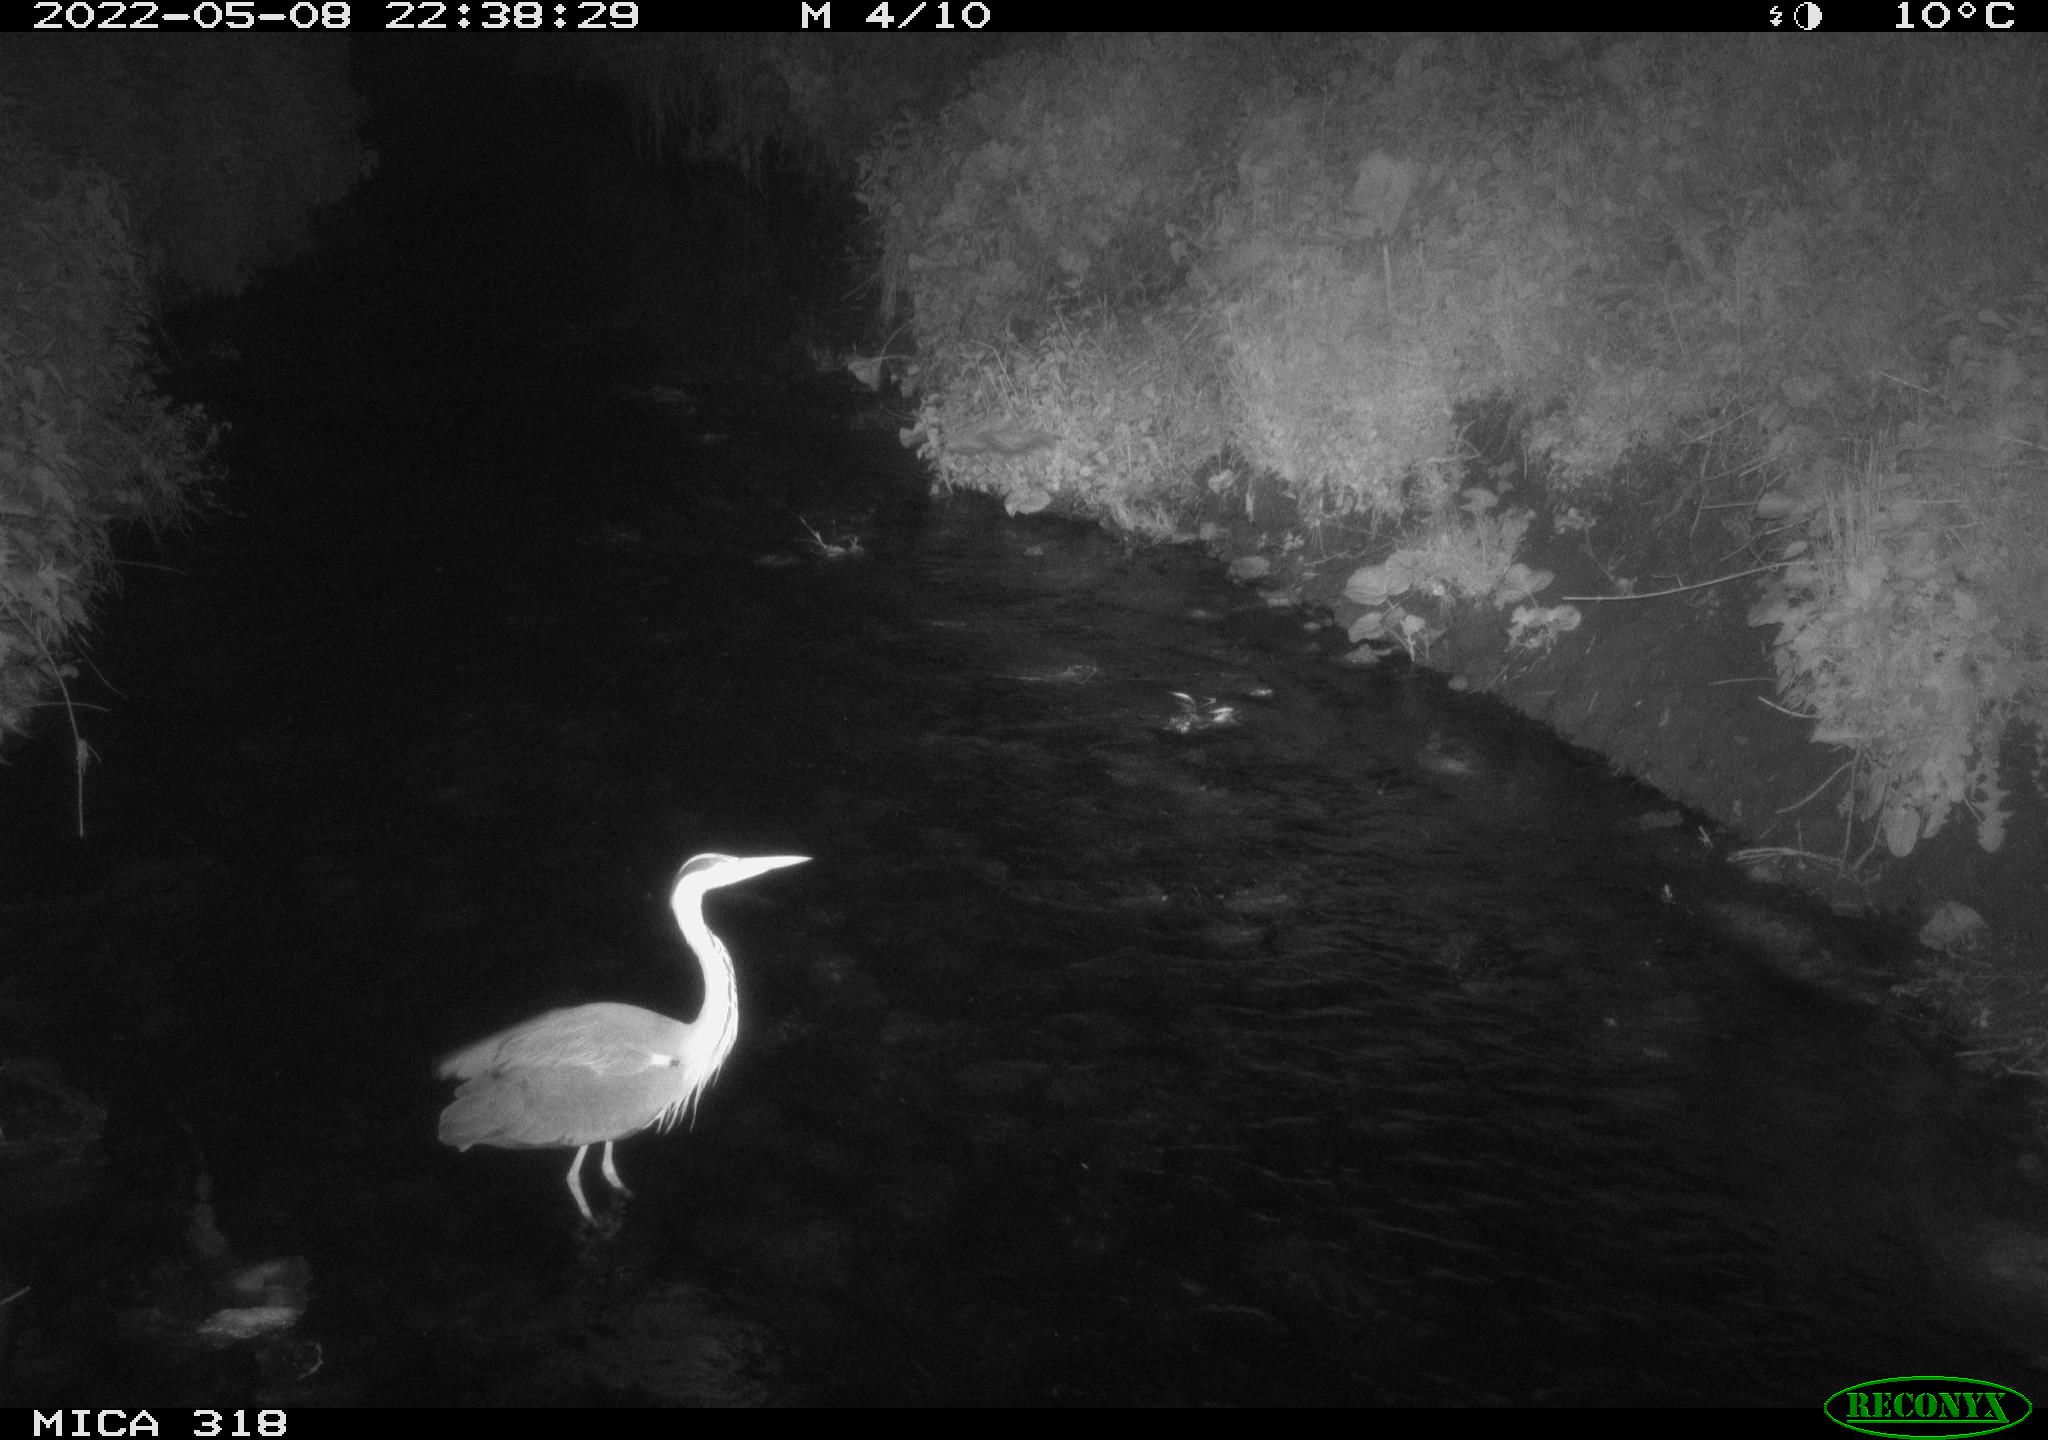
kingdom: Animalia
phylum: Chordata
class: Aves
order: Pelecaniformes
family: Ardeidae
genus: Ardea
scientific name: Ardea
